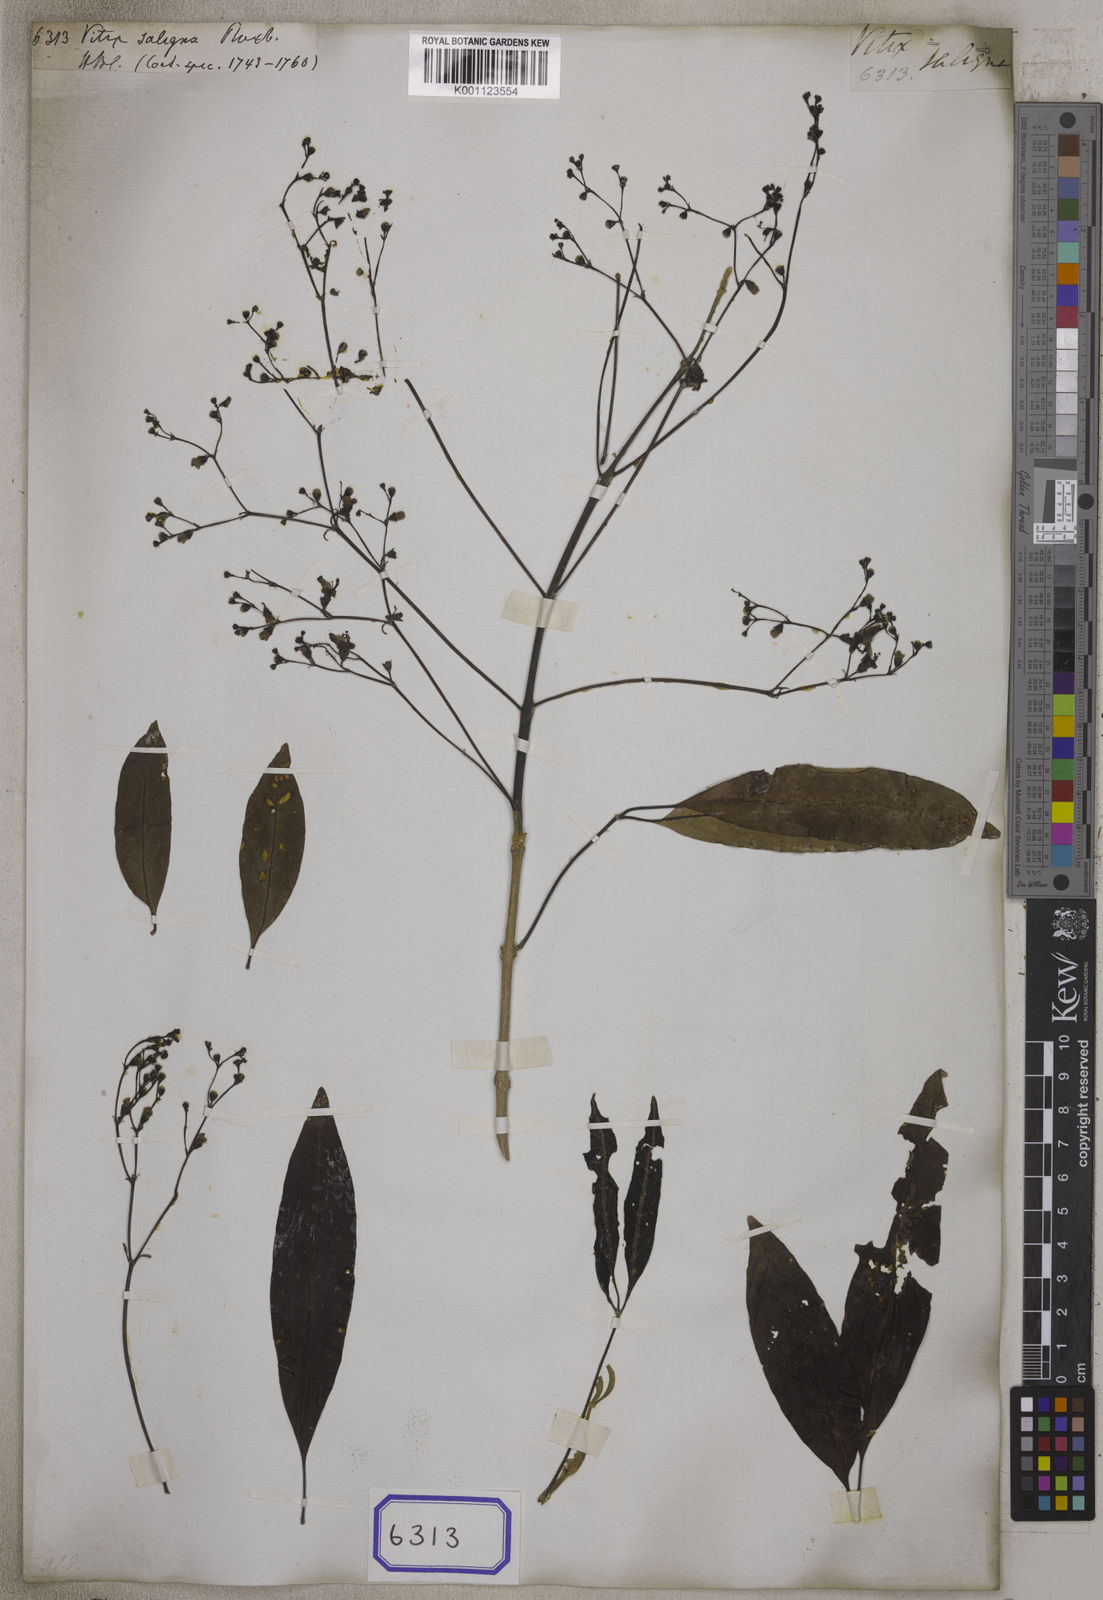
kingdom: Plantae
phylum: Tracheophyta
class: Magnoliopsida
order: Lamiales
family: Lamiaceae
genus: Vitex
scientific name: Vitex leucoxylon
